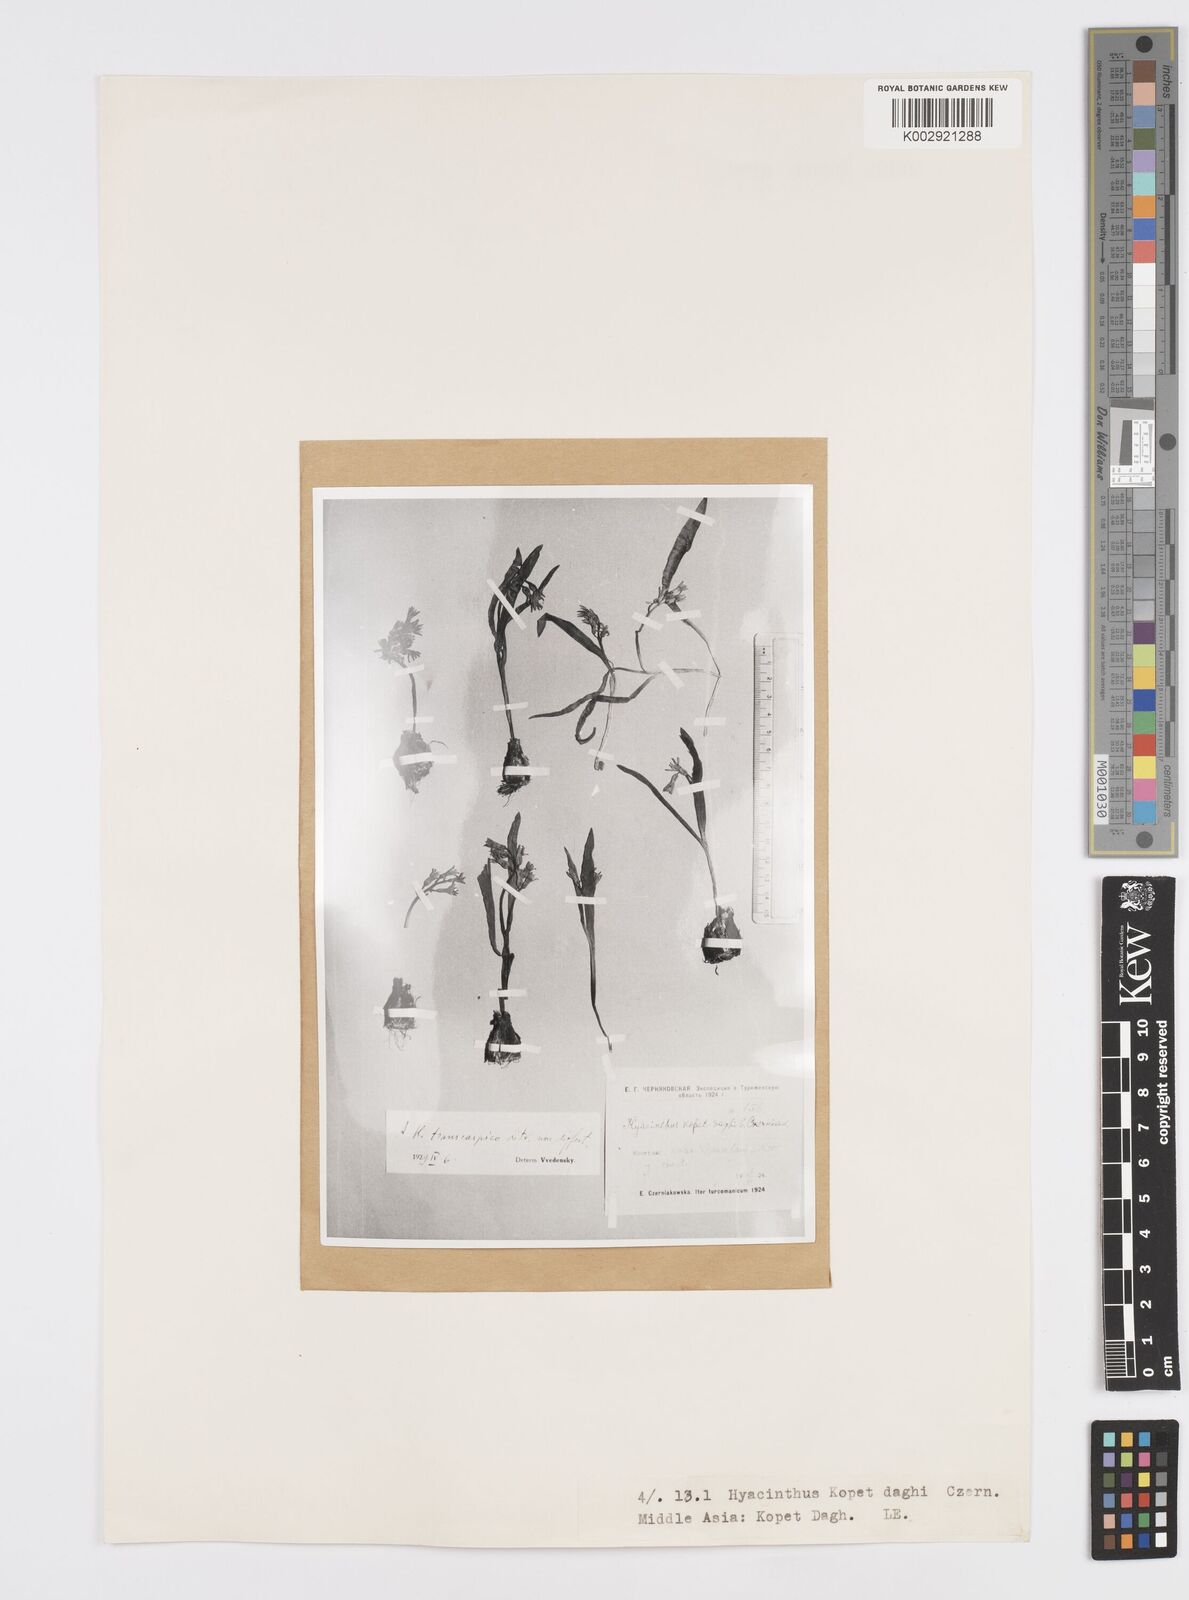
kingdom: Plantae
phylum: Tracheophyta
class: Liliopsida
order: Asparagales
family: Asparagaceae
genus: Hyacinthus
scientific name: Hyacinthus transcaspicus
